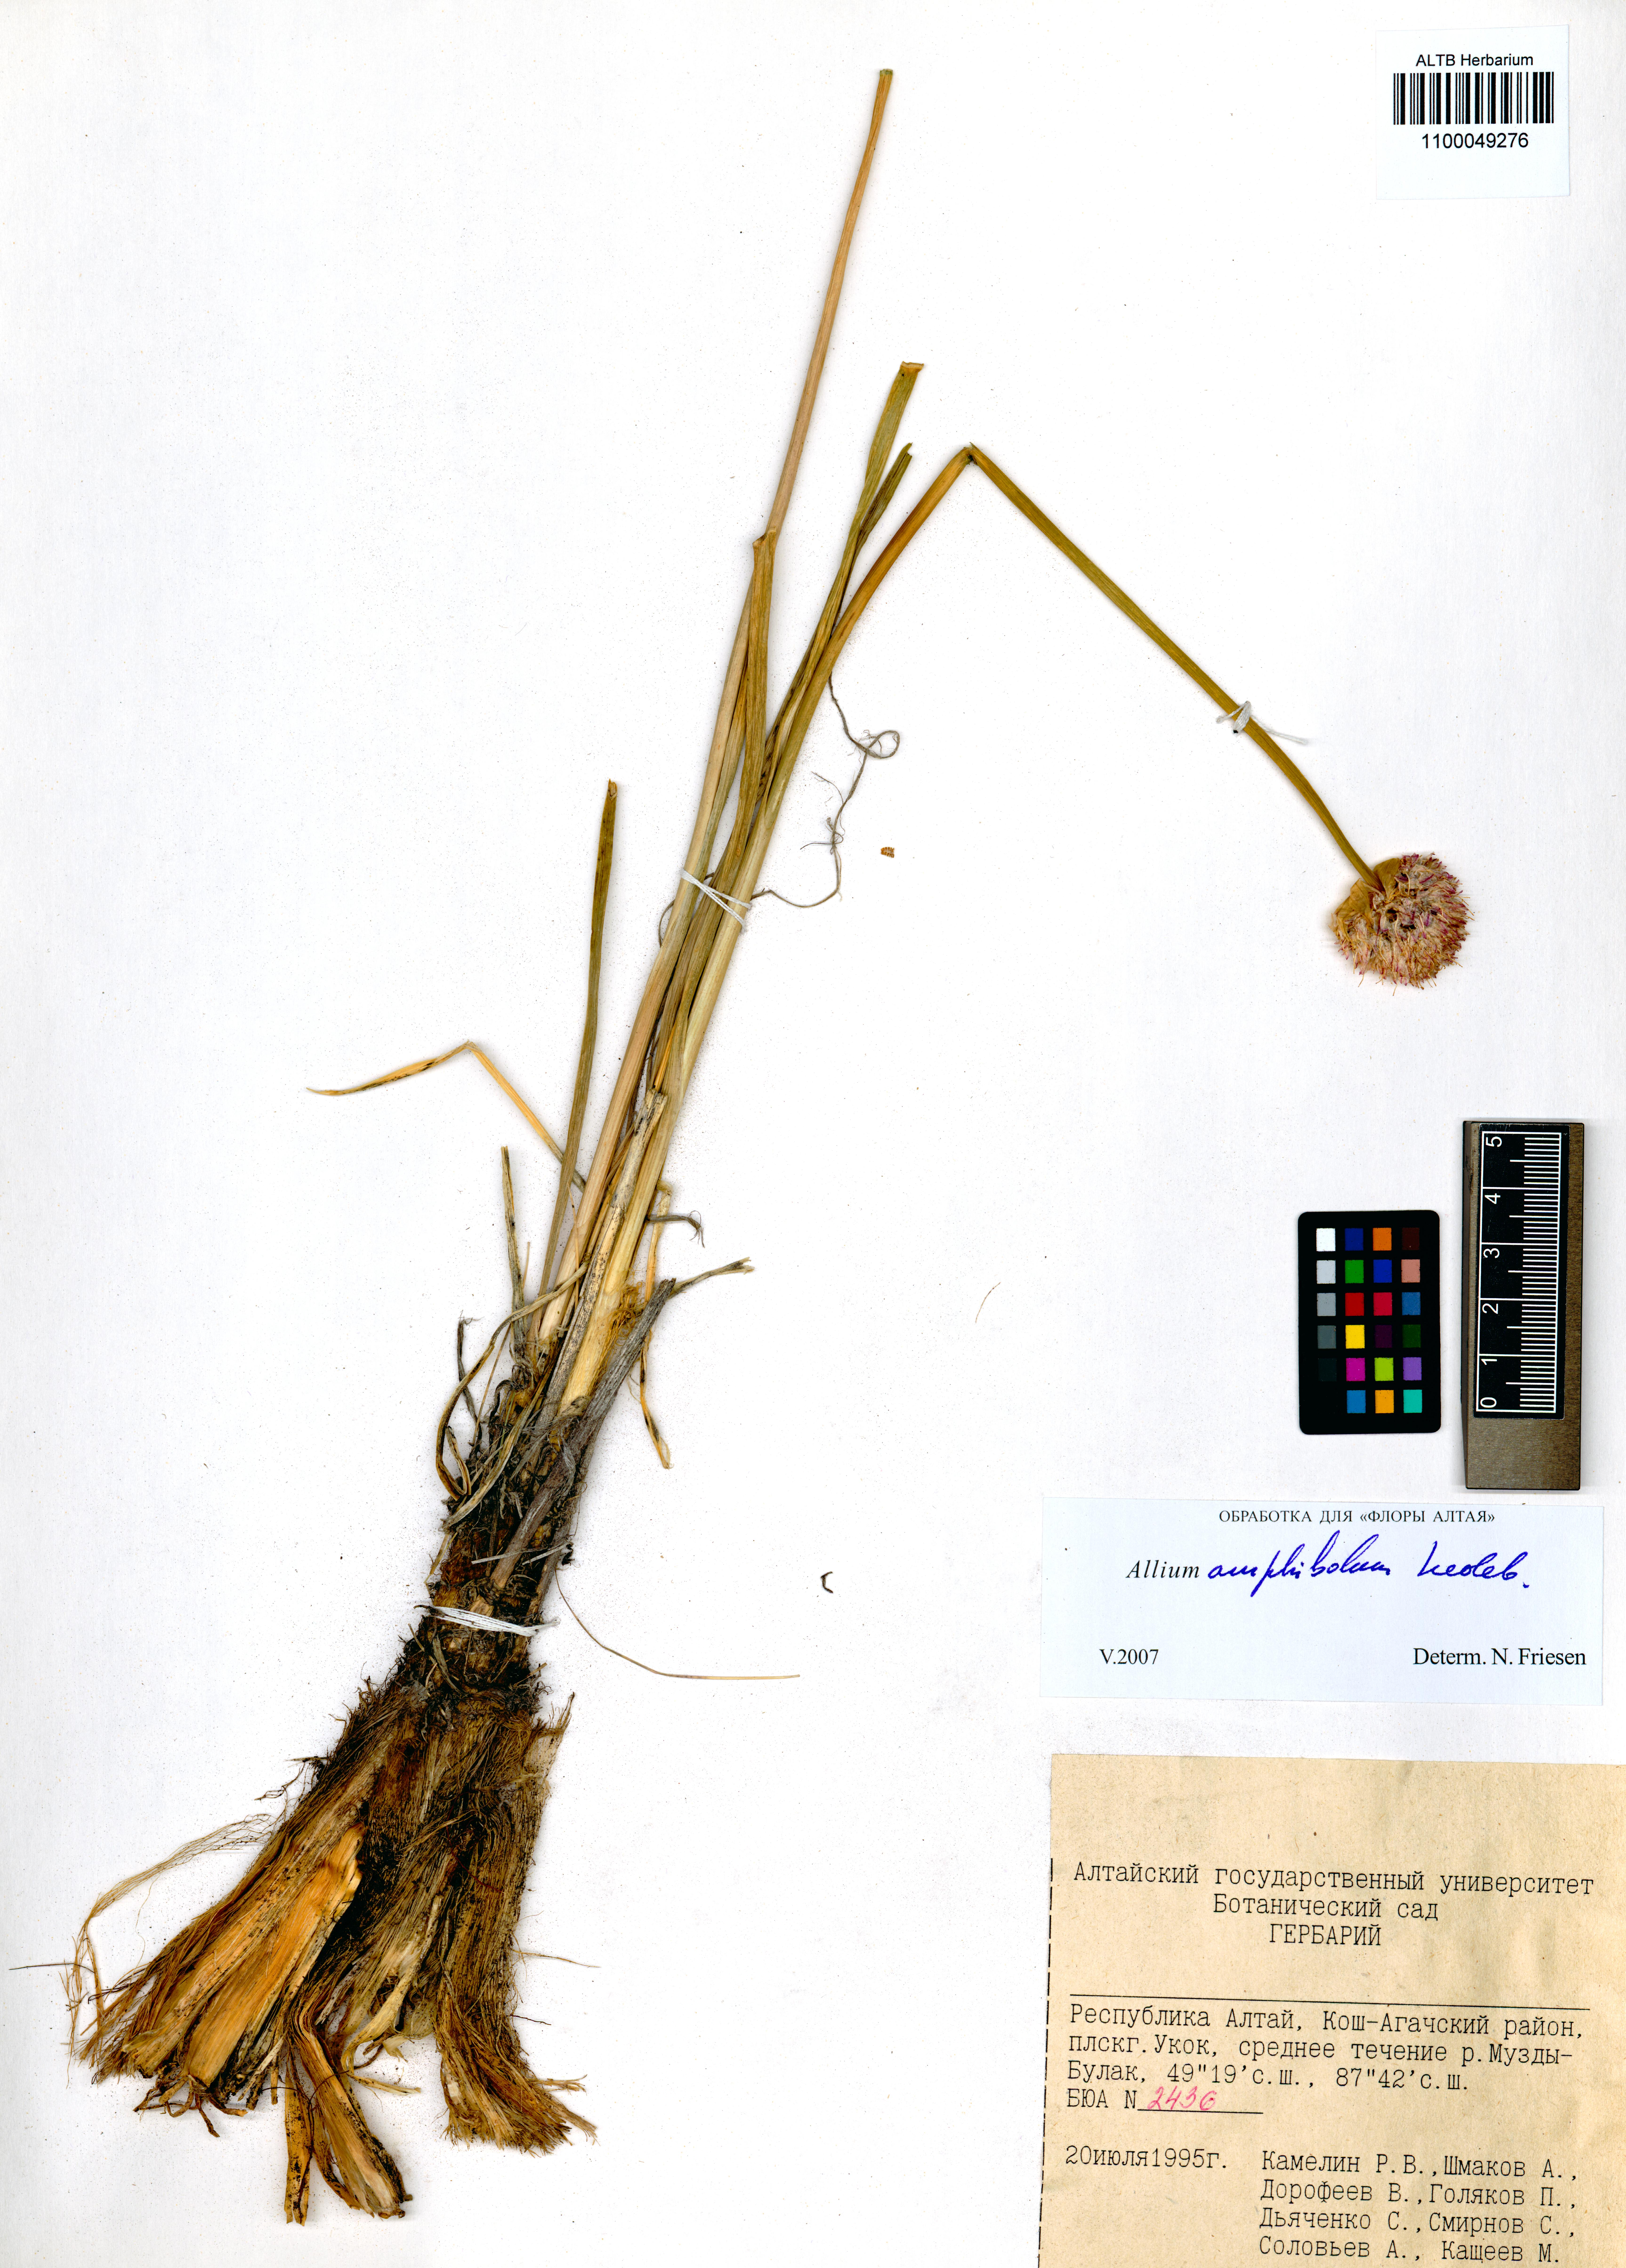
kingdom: Plantae
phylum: Tracheophyta
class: Liliopsida
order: Asparagales
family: Amaryllidaceae
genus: Allium
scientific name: Allium amphibolum
